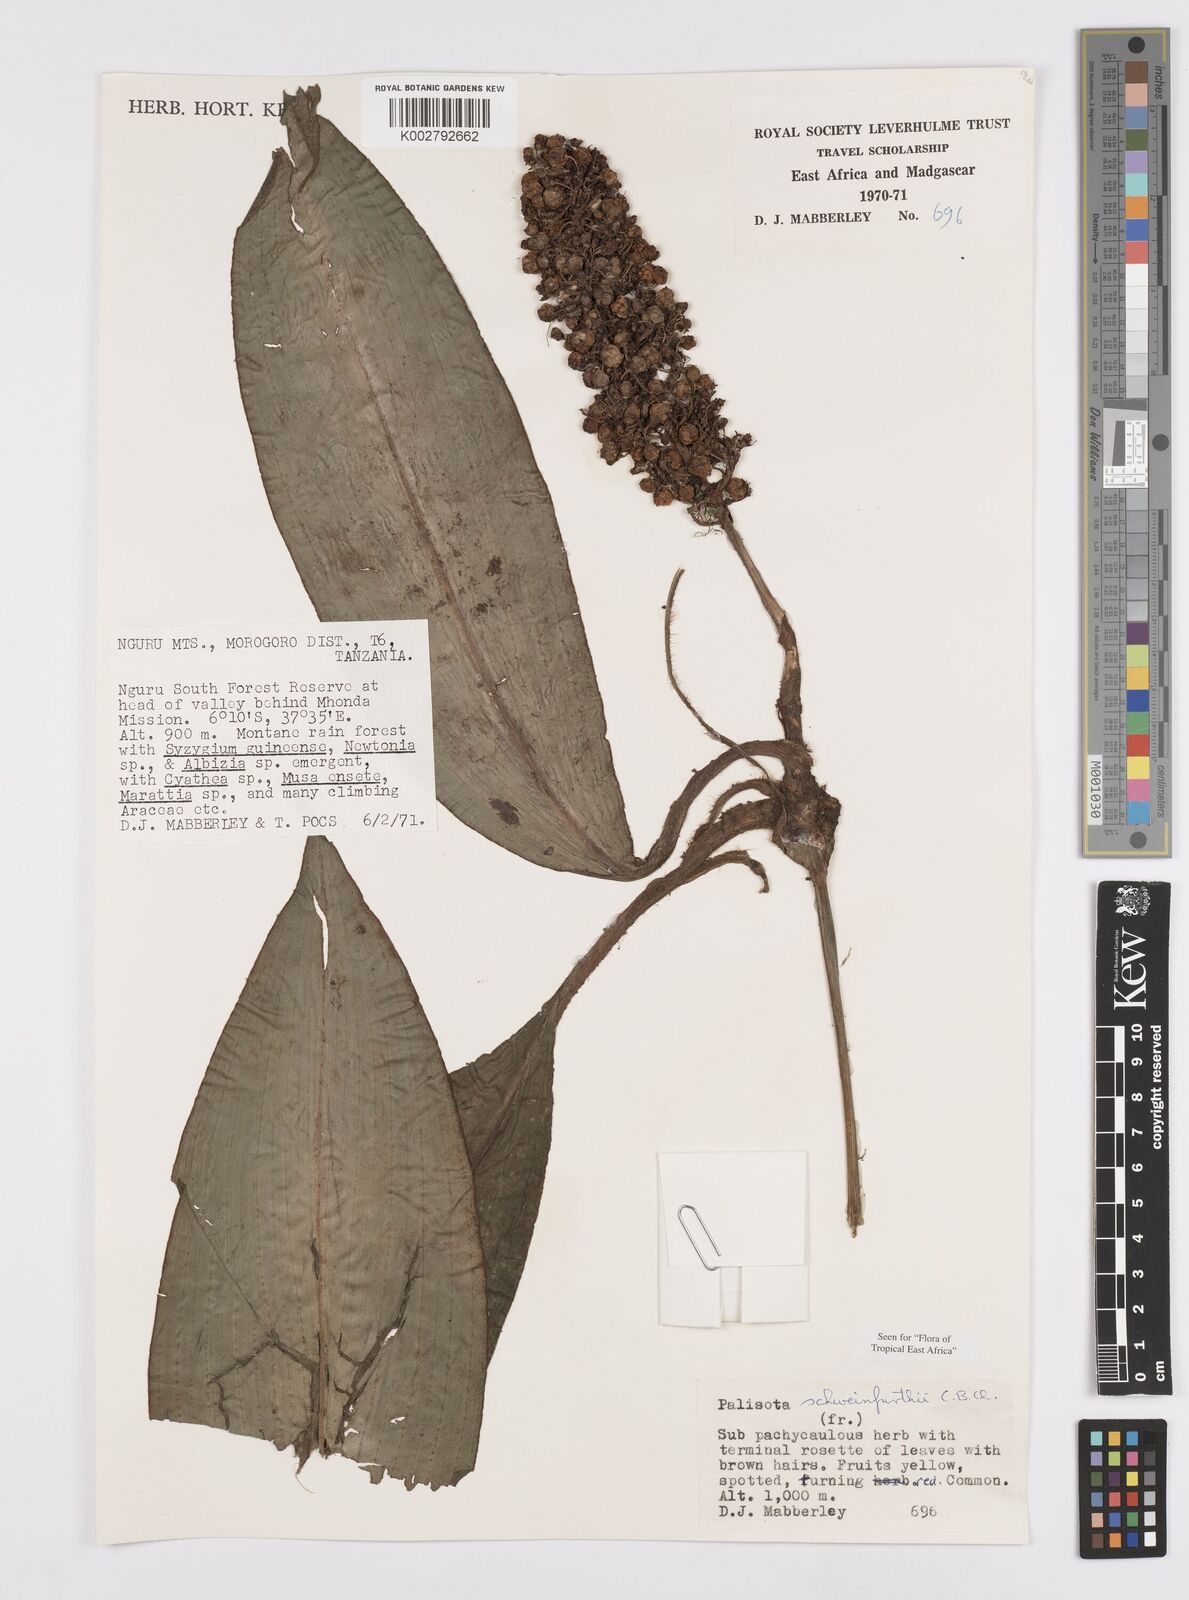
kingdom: Plantae
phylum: Tracheophyta
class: Liliopsida
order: Commelinales
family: Commelinaceae
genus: Palisota
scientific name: Palisota schweinfurthii
